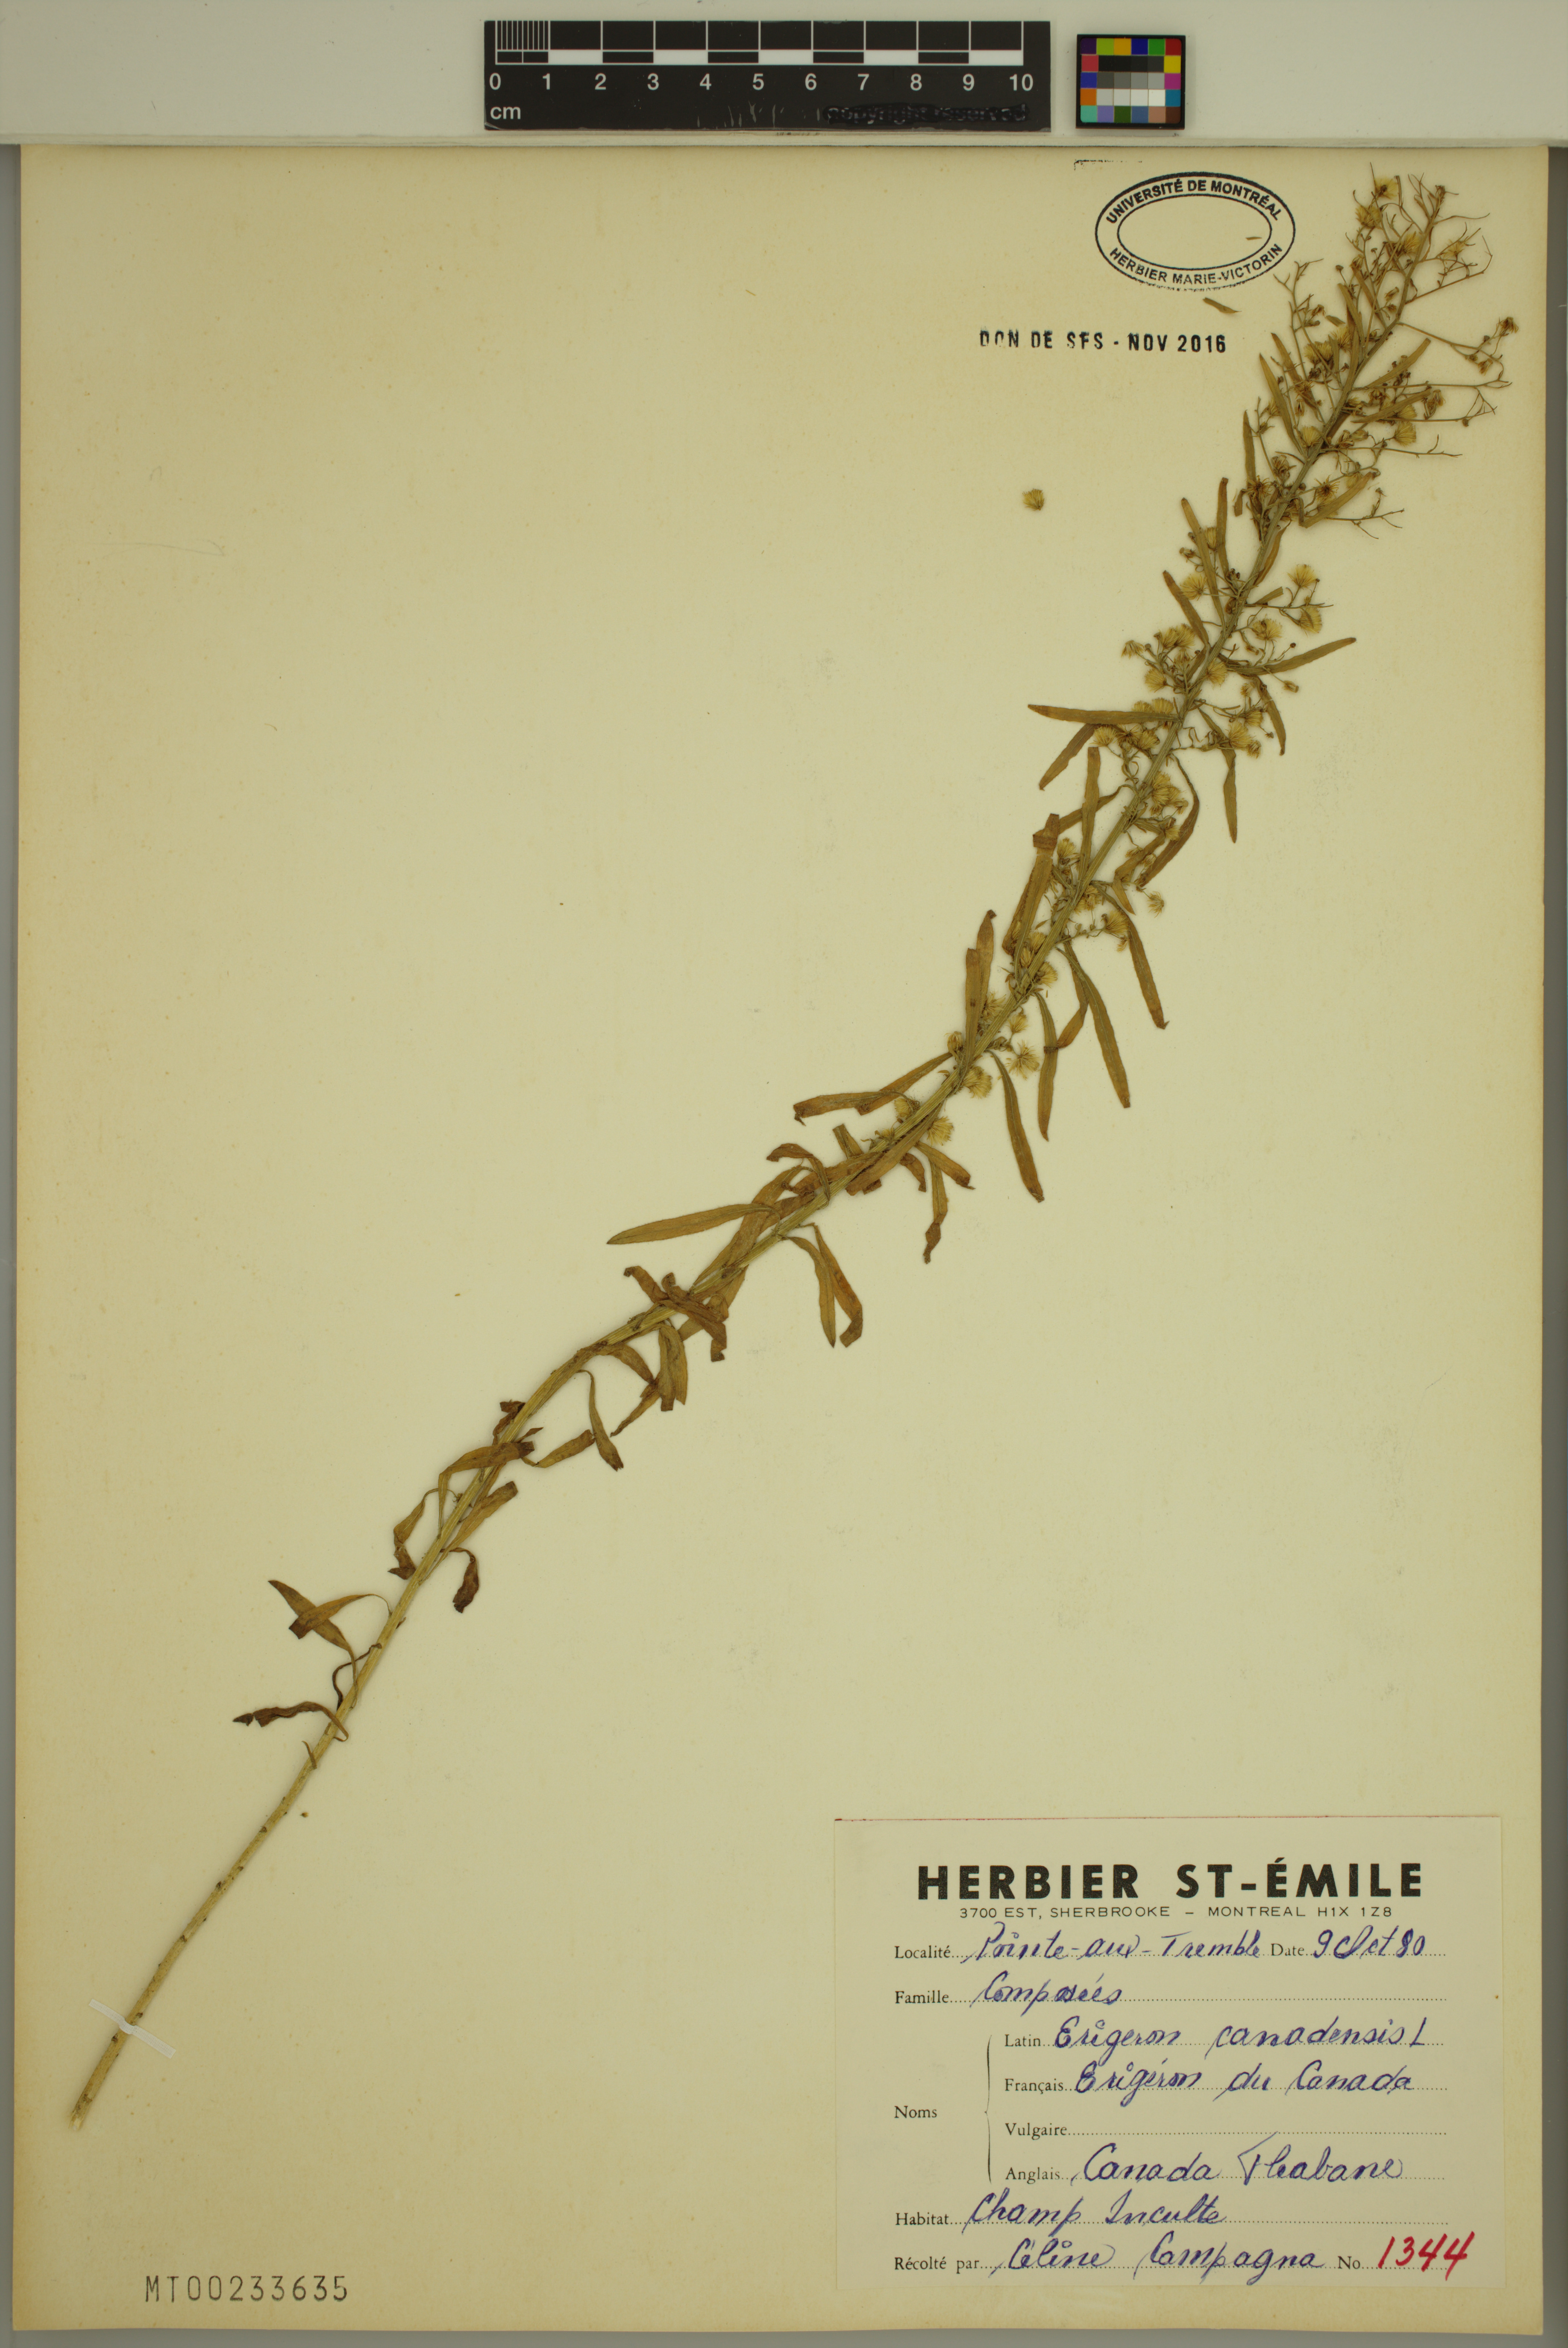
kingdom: Plantae
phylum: Tracheophyta
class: Magnoliopsida
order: Asterales
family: Asteraceae
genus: Erigeron
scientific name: Erigeron canadensis
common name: Canadian fleabane
